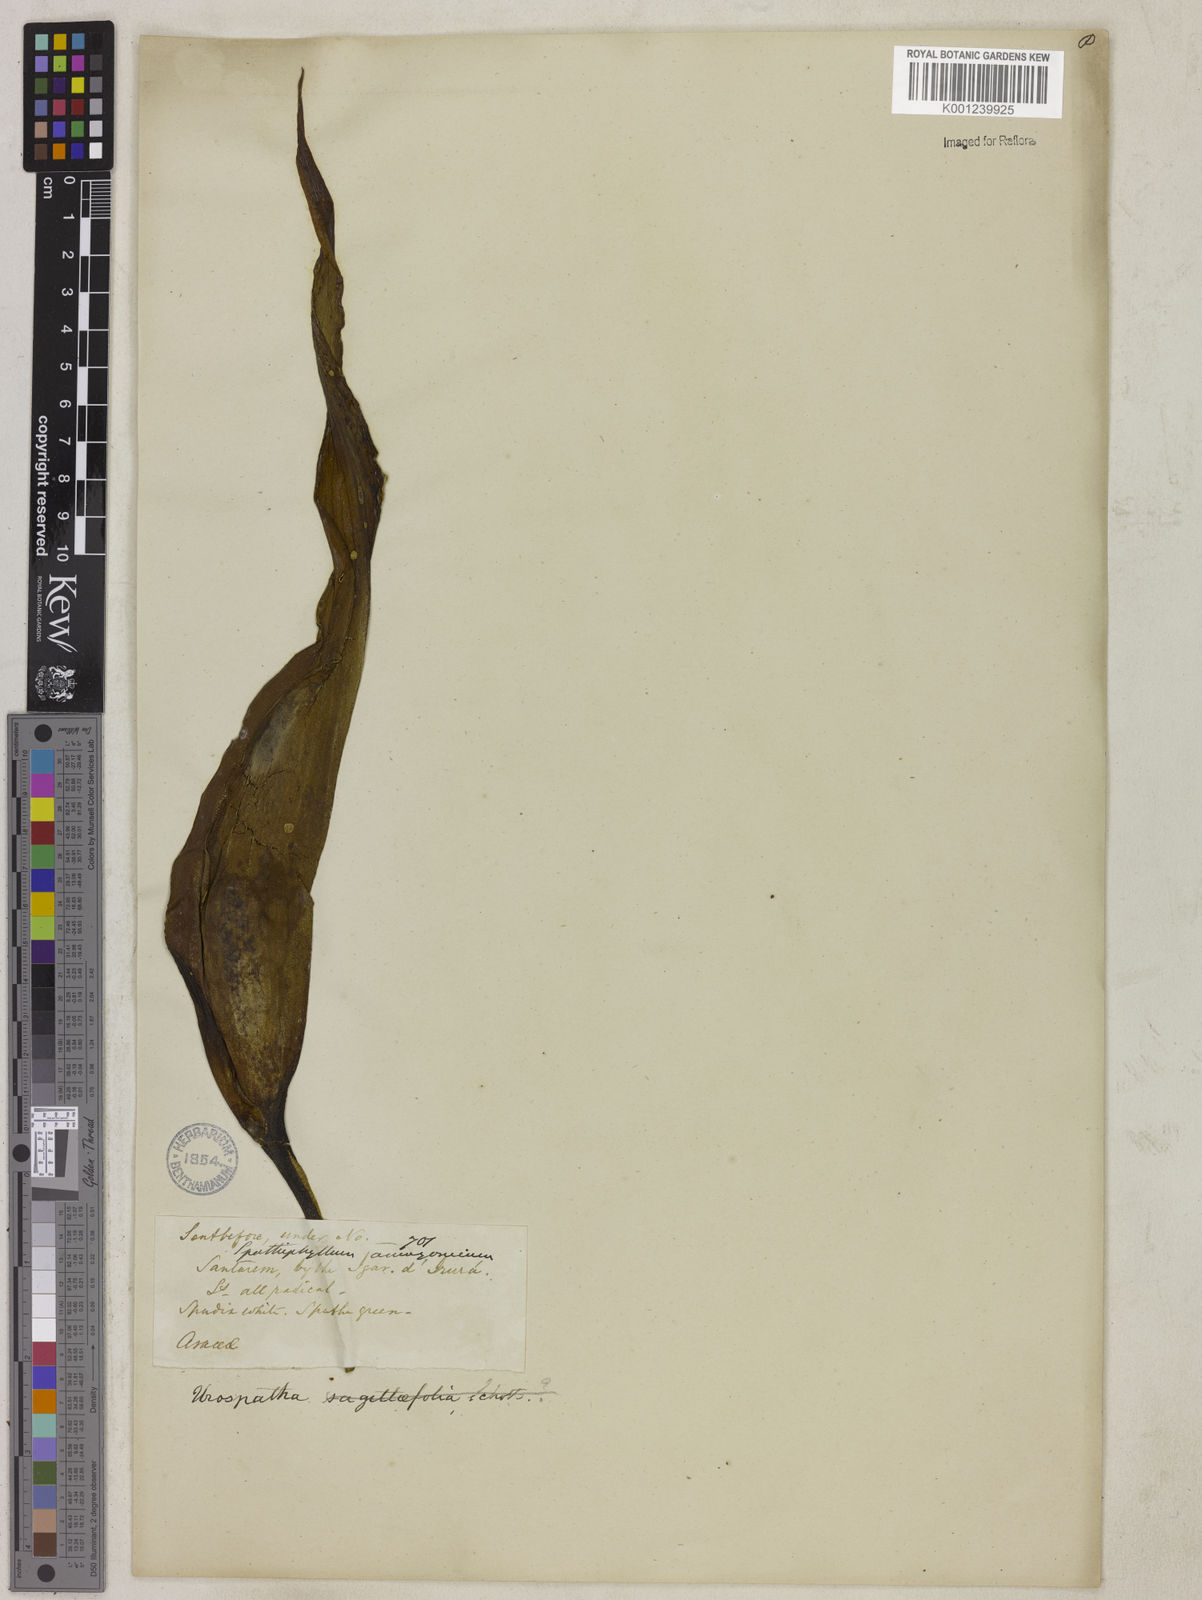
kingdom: Plantae
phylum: Tracheophyta
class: Liliopsida
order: Alismatales
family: Araceae
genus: Urospatha
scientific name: Urospatha sagittifolia
